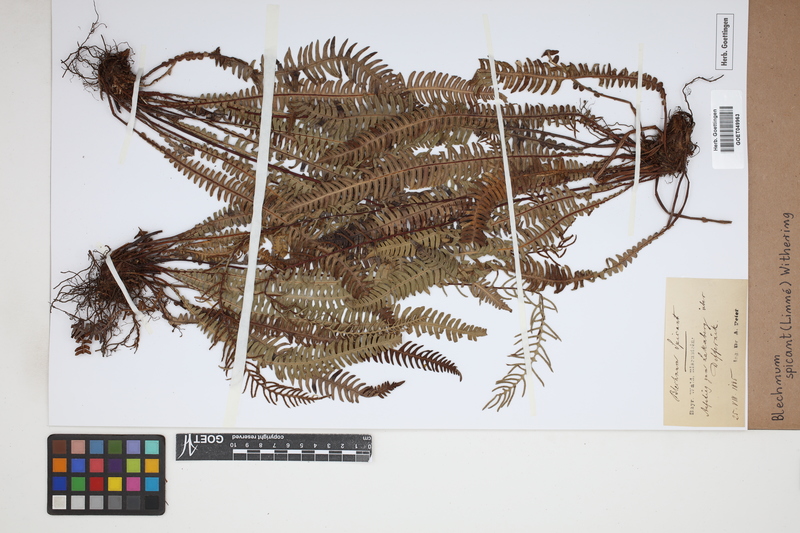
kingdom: Plantae
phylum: Tracheophyta
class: Polypodiopsida
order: Polypodiales
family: Blechnaceae
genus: Struthiopteris
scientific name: Struthiopteris spicant
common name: Deer fern
